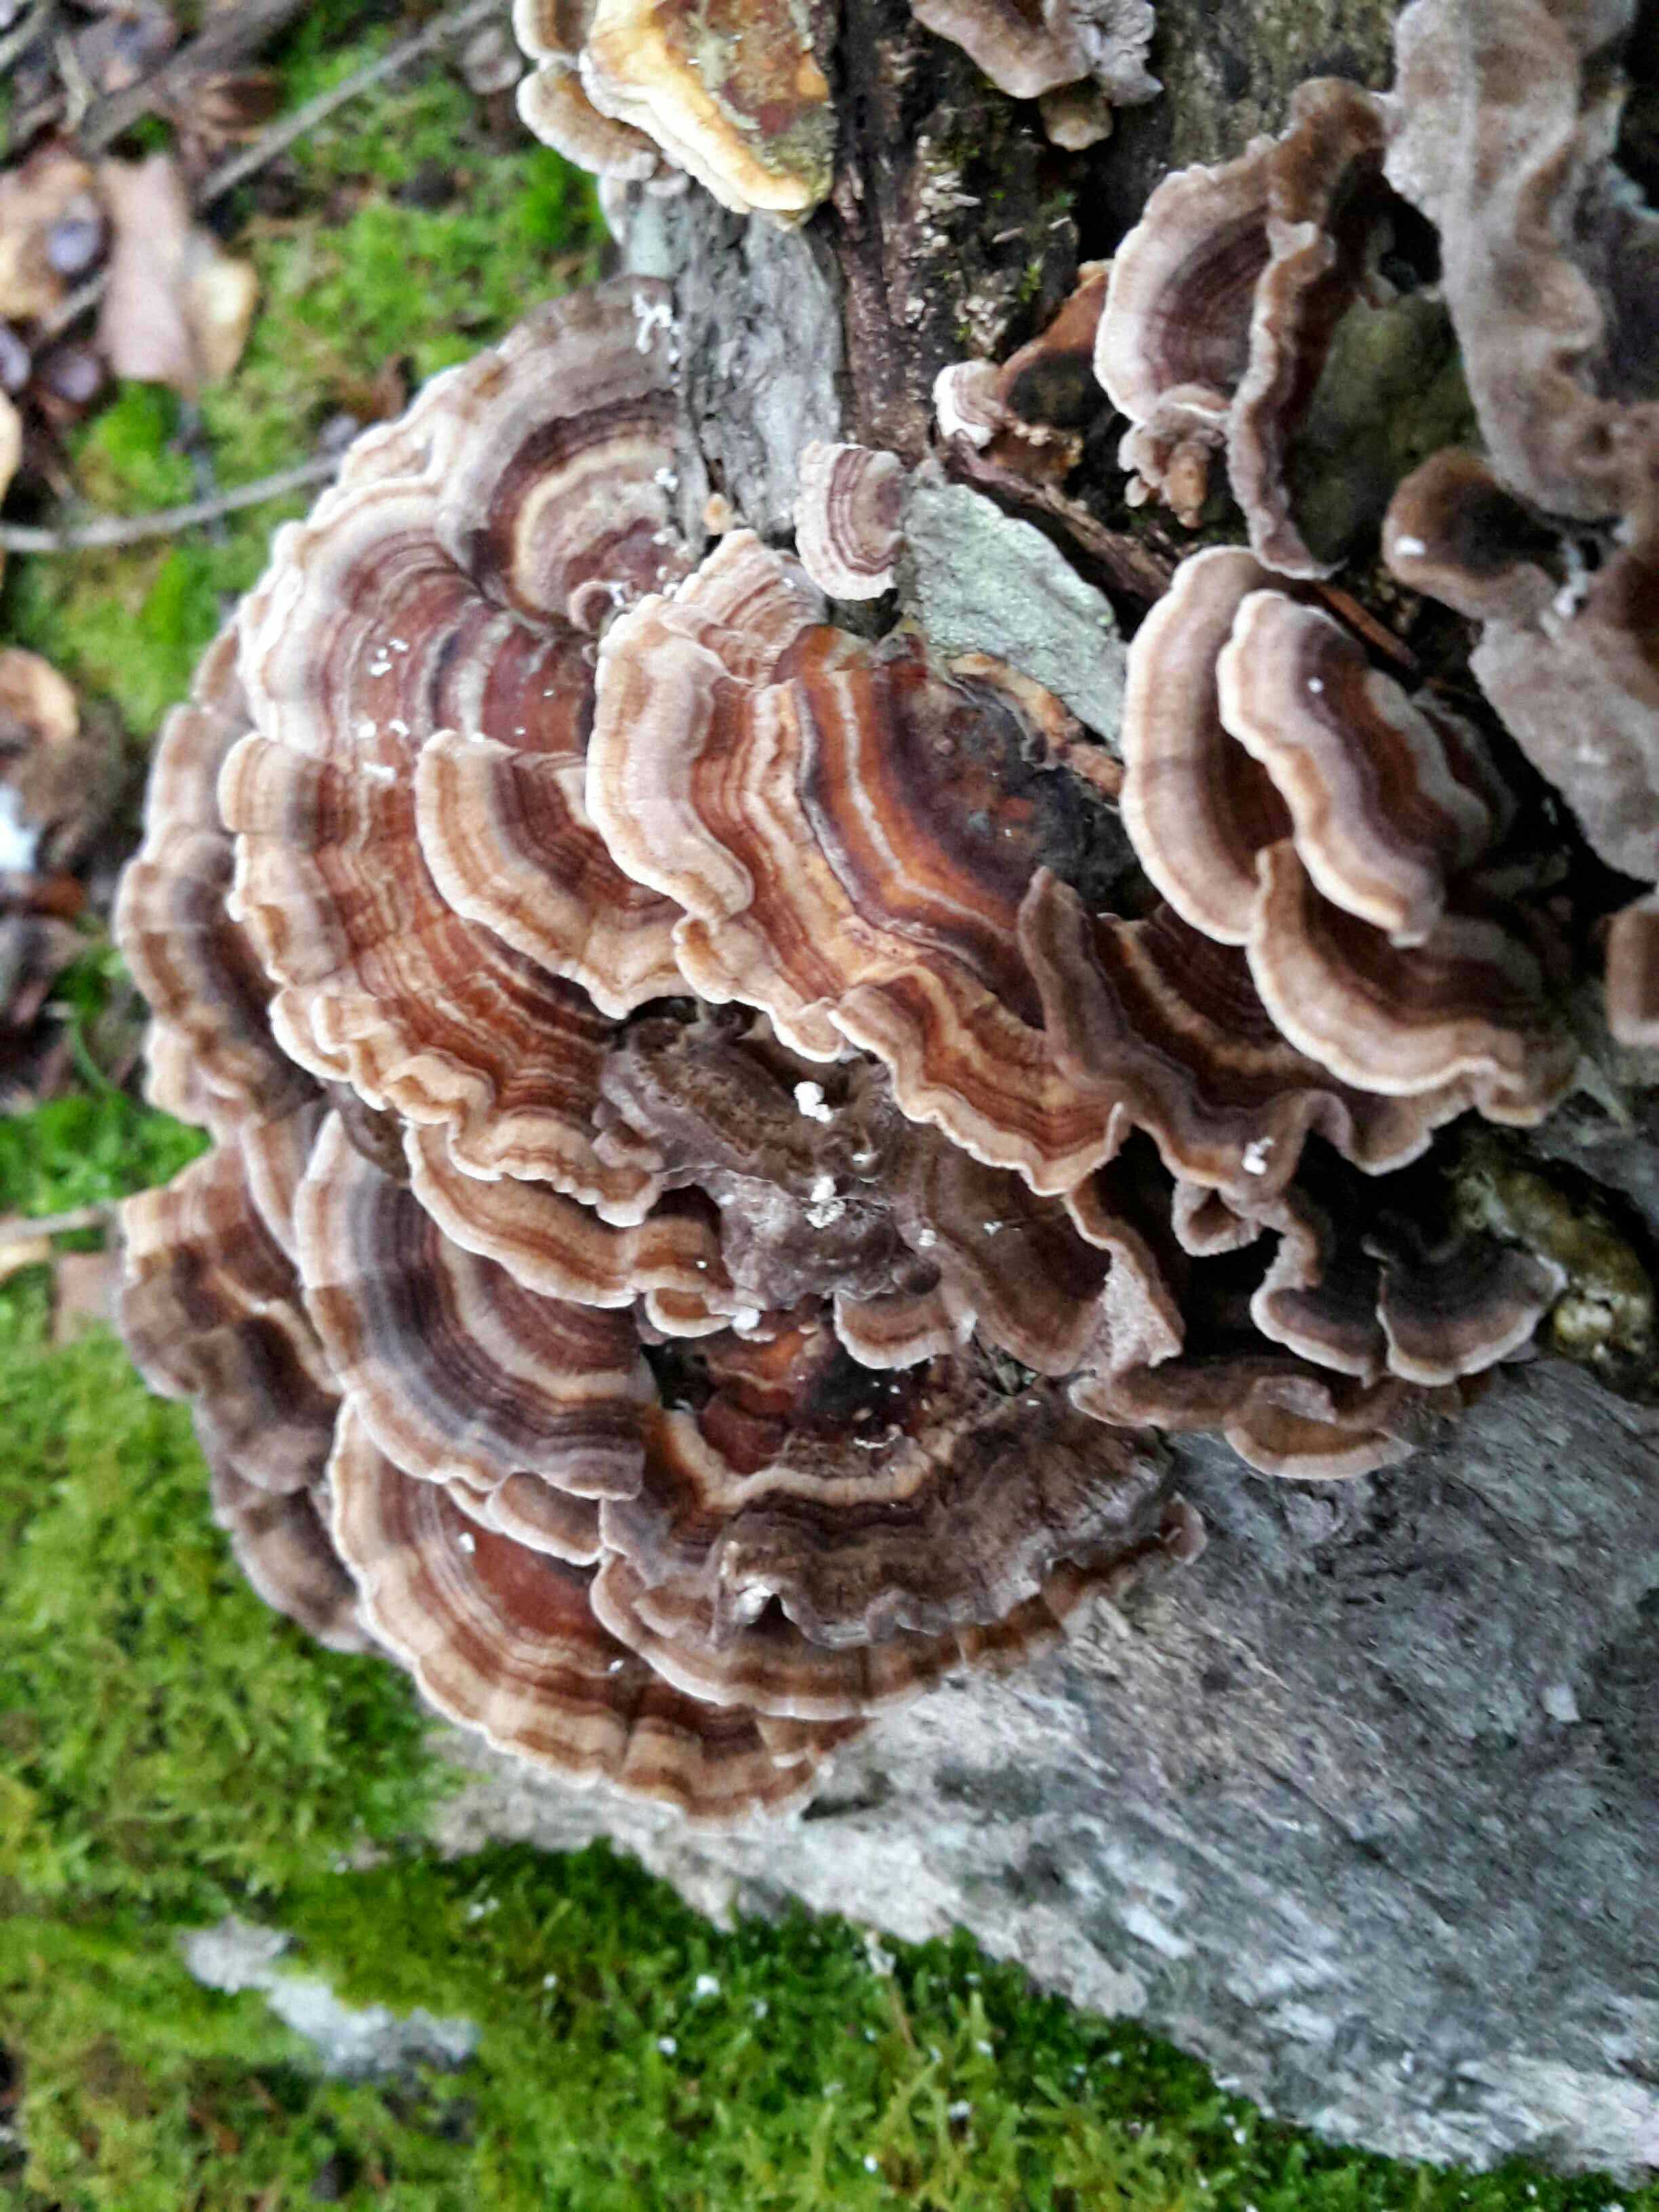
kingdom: Fungi
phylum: Basidiomycota
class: Agaricomycetes
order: Polyporales
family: Polyporaceae
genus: Trametes
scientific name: Trametes versicolor
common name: broget læderporesvamp
